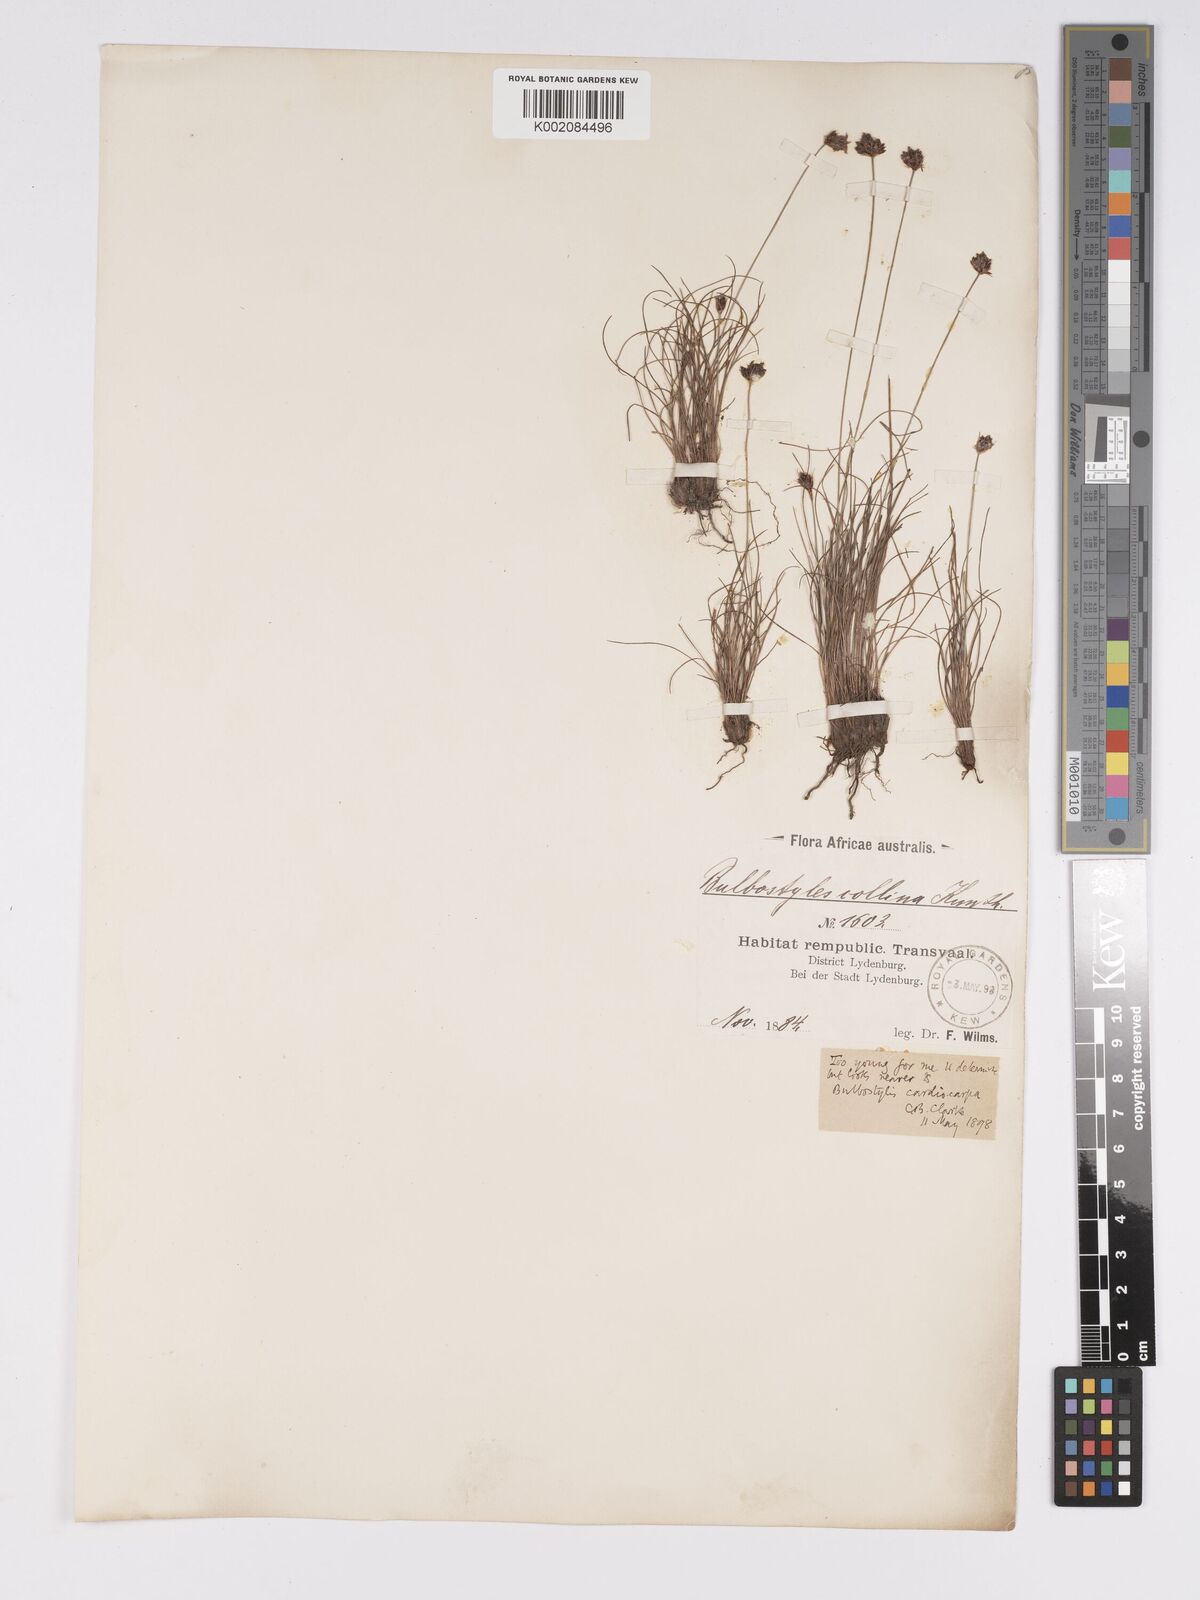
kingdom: Plantae
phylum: Tracheophyta
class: Liliopsida
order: Poales
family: Cyperaceae
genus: Bulbostylis
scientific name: Bulbostylis filamentosa
